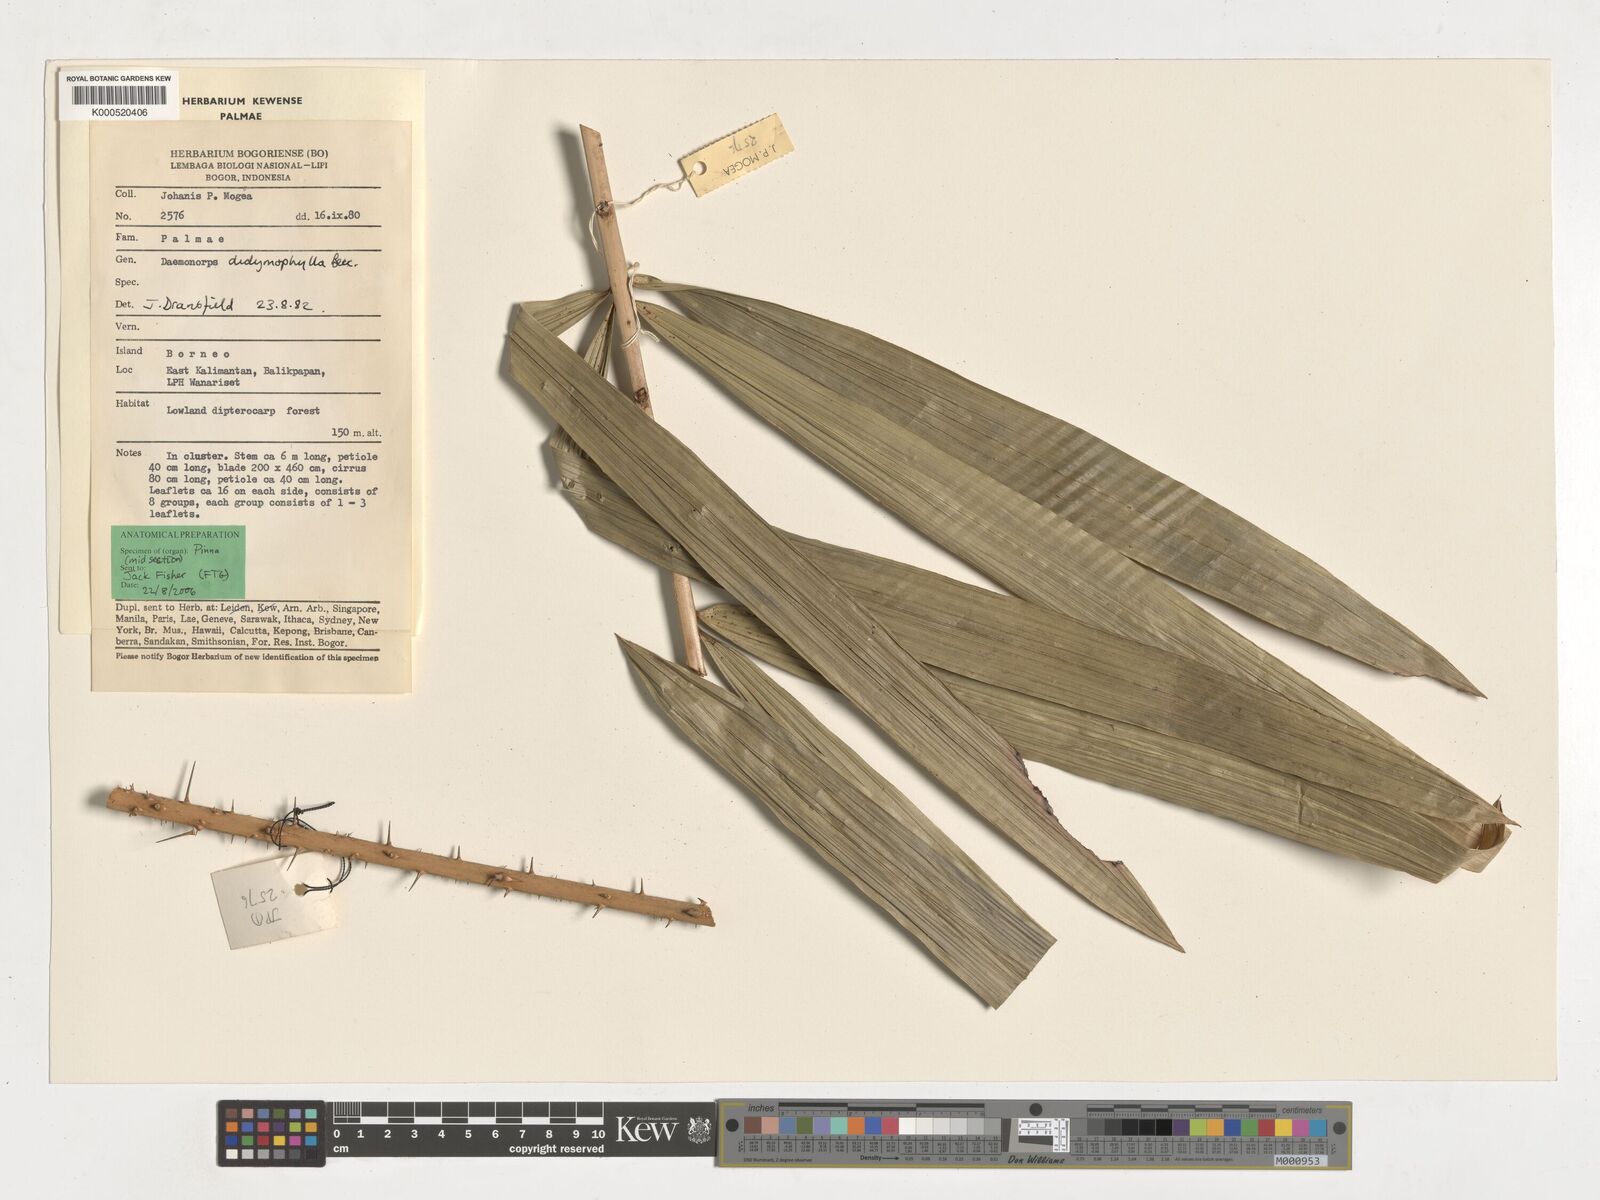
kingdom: Plantae
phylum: Tracheophyta
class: Liliopsida
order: Arecales
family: Arecaceae
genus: Calamus
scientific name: Calamus gracilipes
